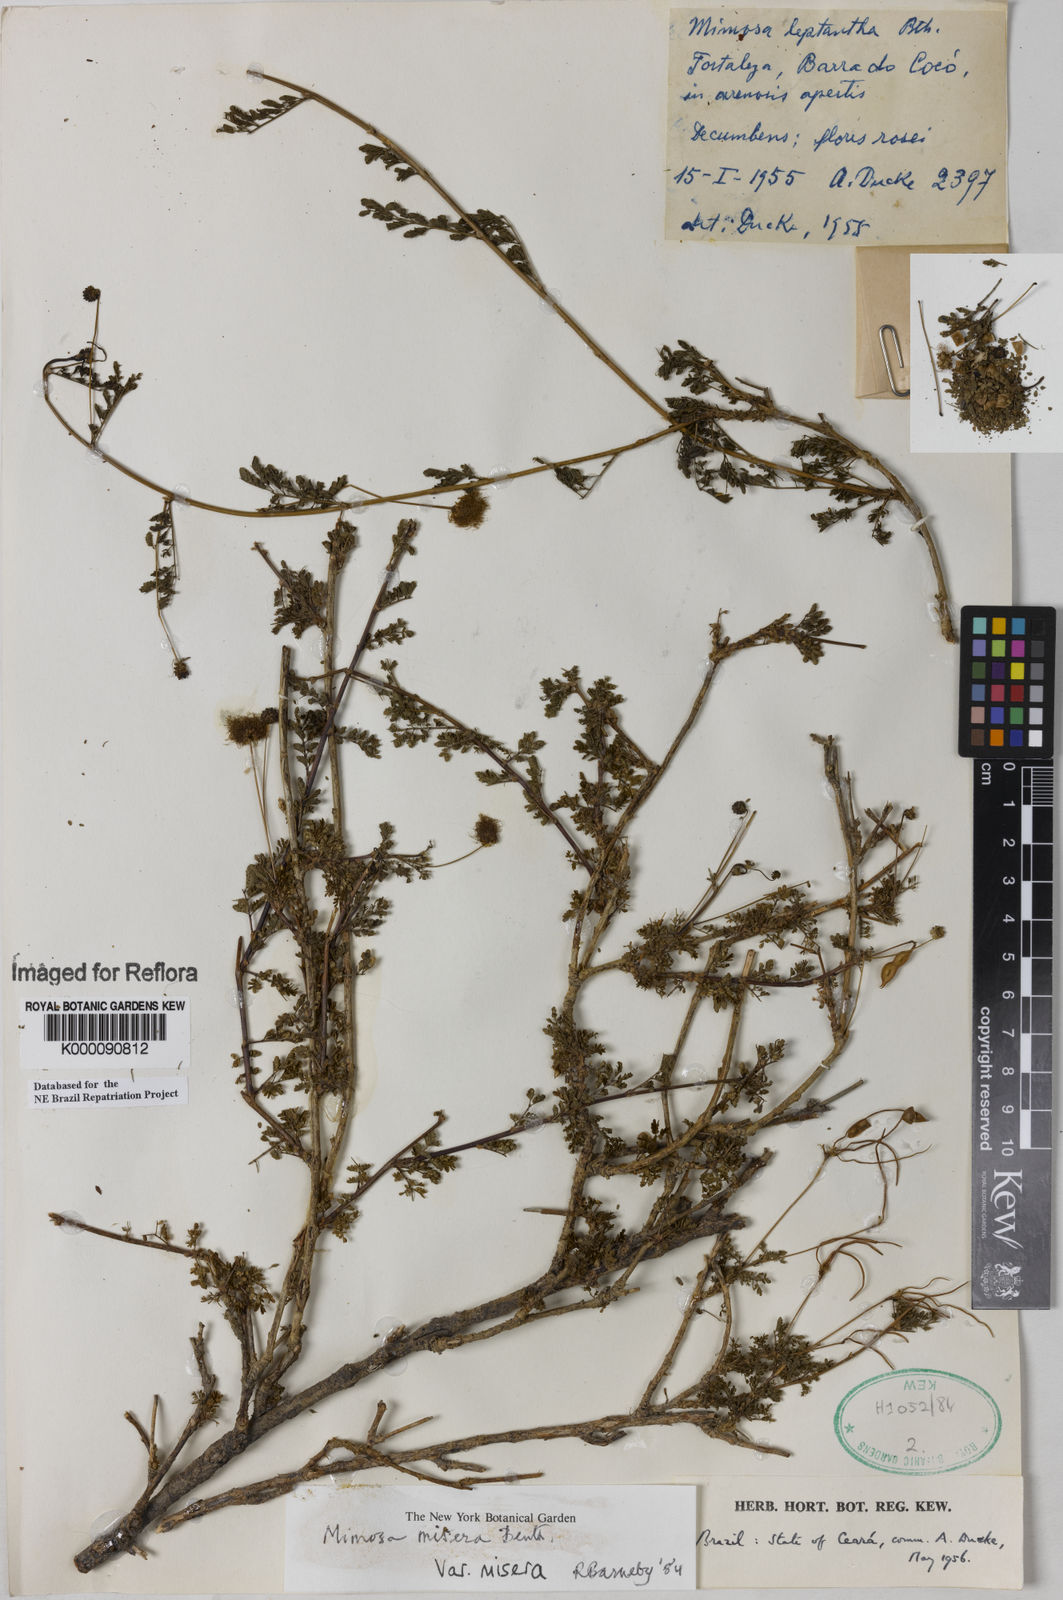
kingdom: Plantae
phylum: Tracheophyta
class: Magnoliopsida
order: Fabales
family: Fabaceae
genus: Mimosa
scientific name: Mimosa misera
